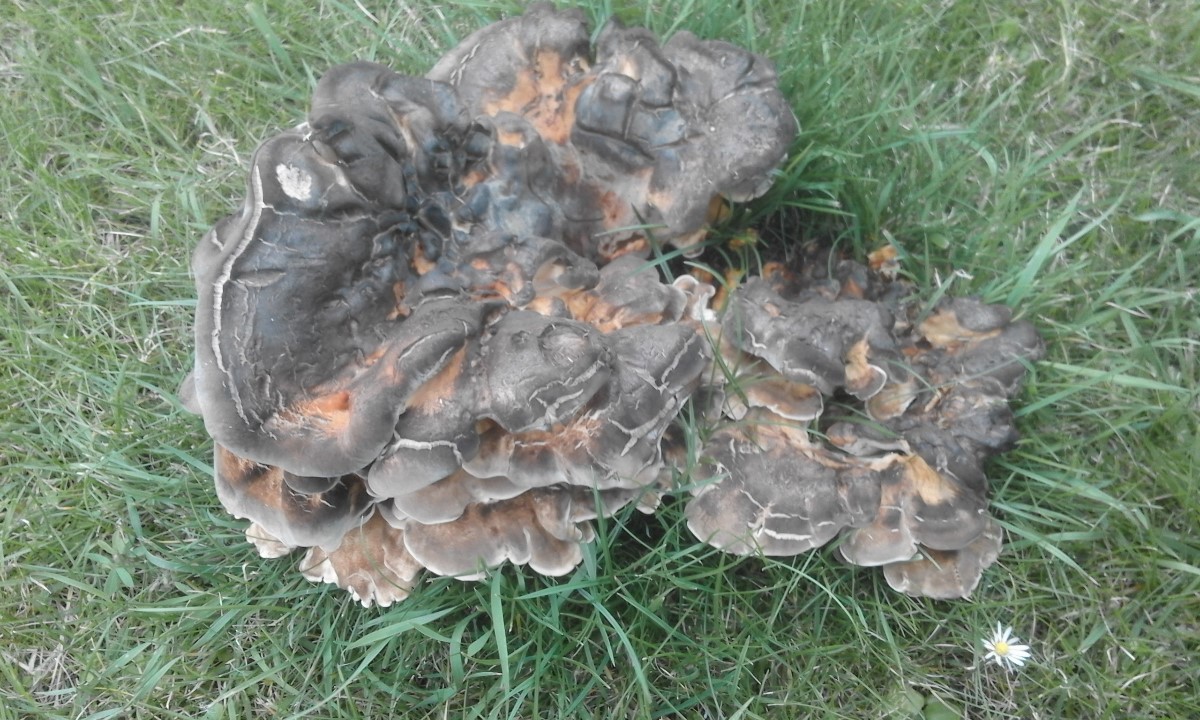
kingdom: Fungi
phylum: Basidiomycota
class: Agaricomycetes
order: Polyporales
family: Meripilaceae
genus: Meripilus
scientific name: Meripilus giganteus
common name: kæmpeporesvamp
